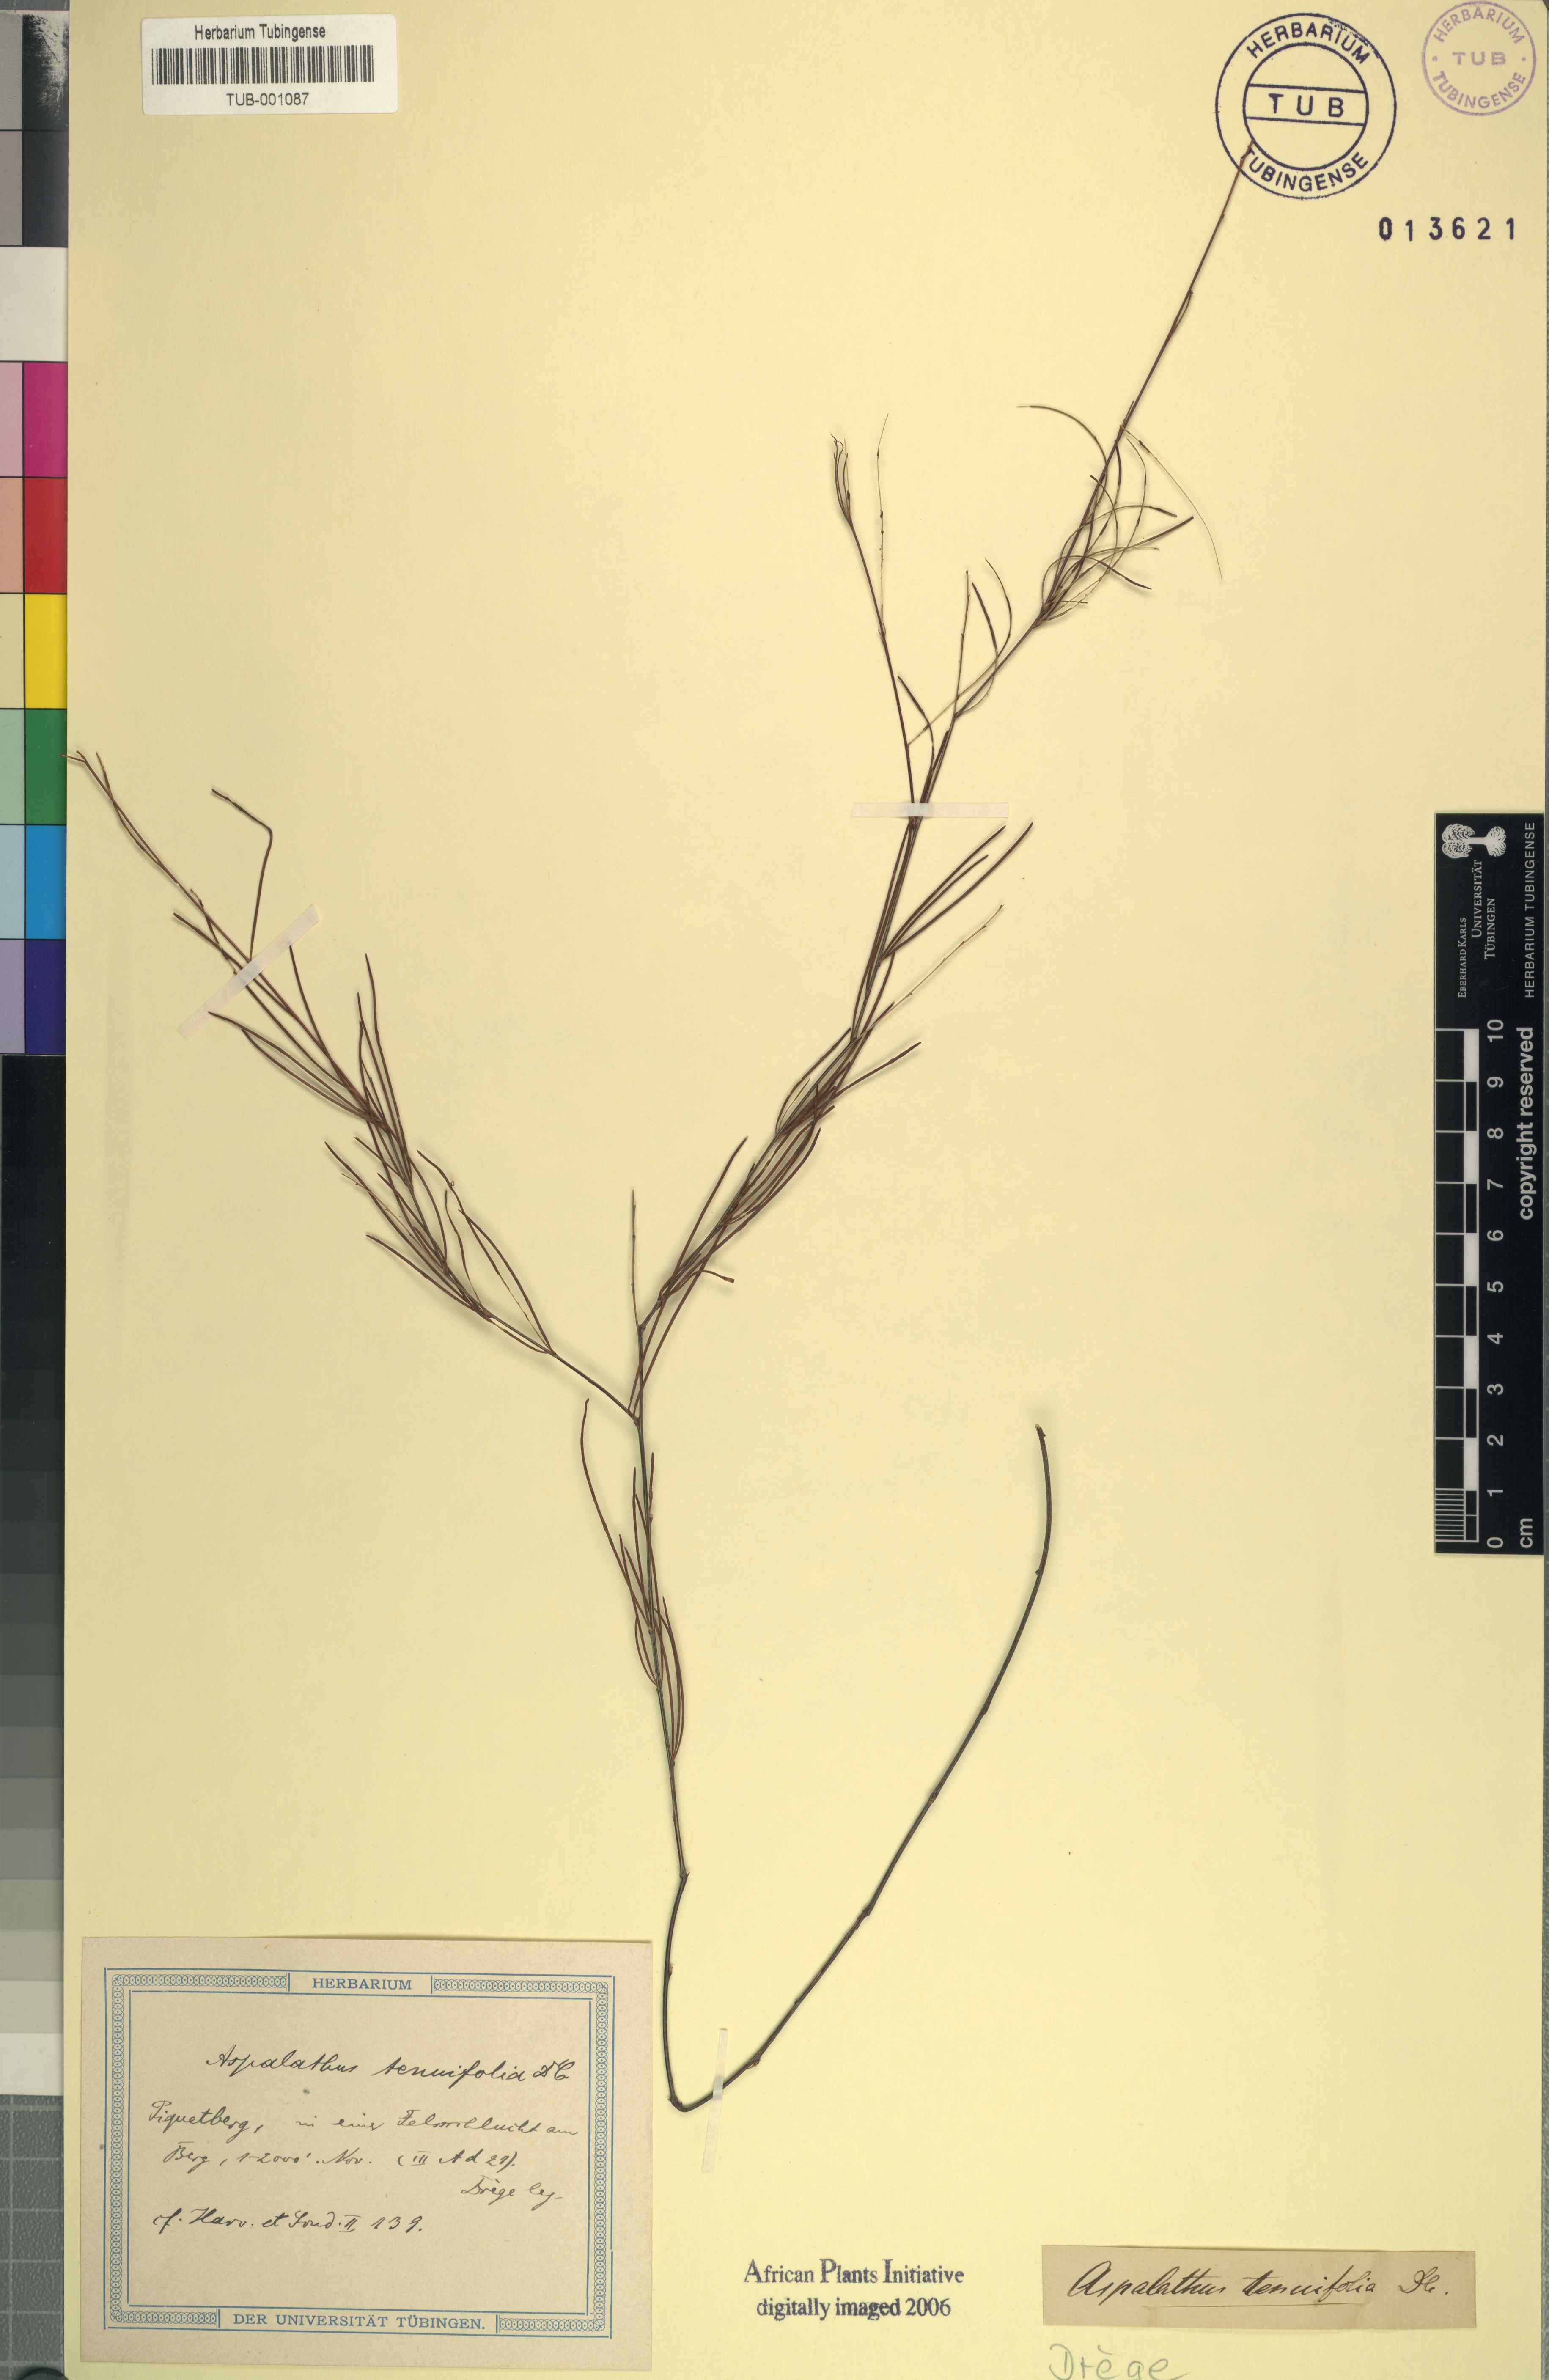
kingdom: Plantae
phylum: Tracheophyta
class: Magnoliopsida
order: Fabales
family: Fabaceae
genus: Aspalathus
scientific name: Aspalathus linearis
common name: Rooibos-tea
